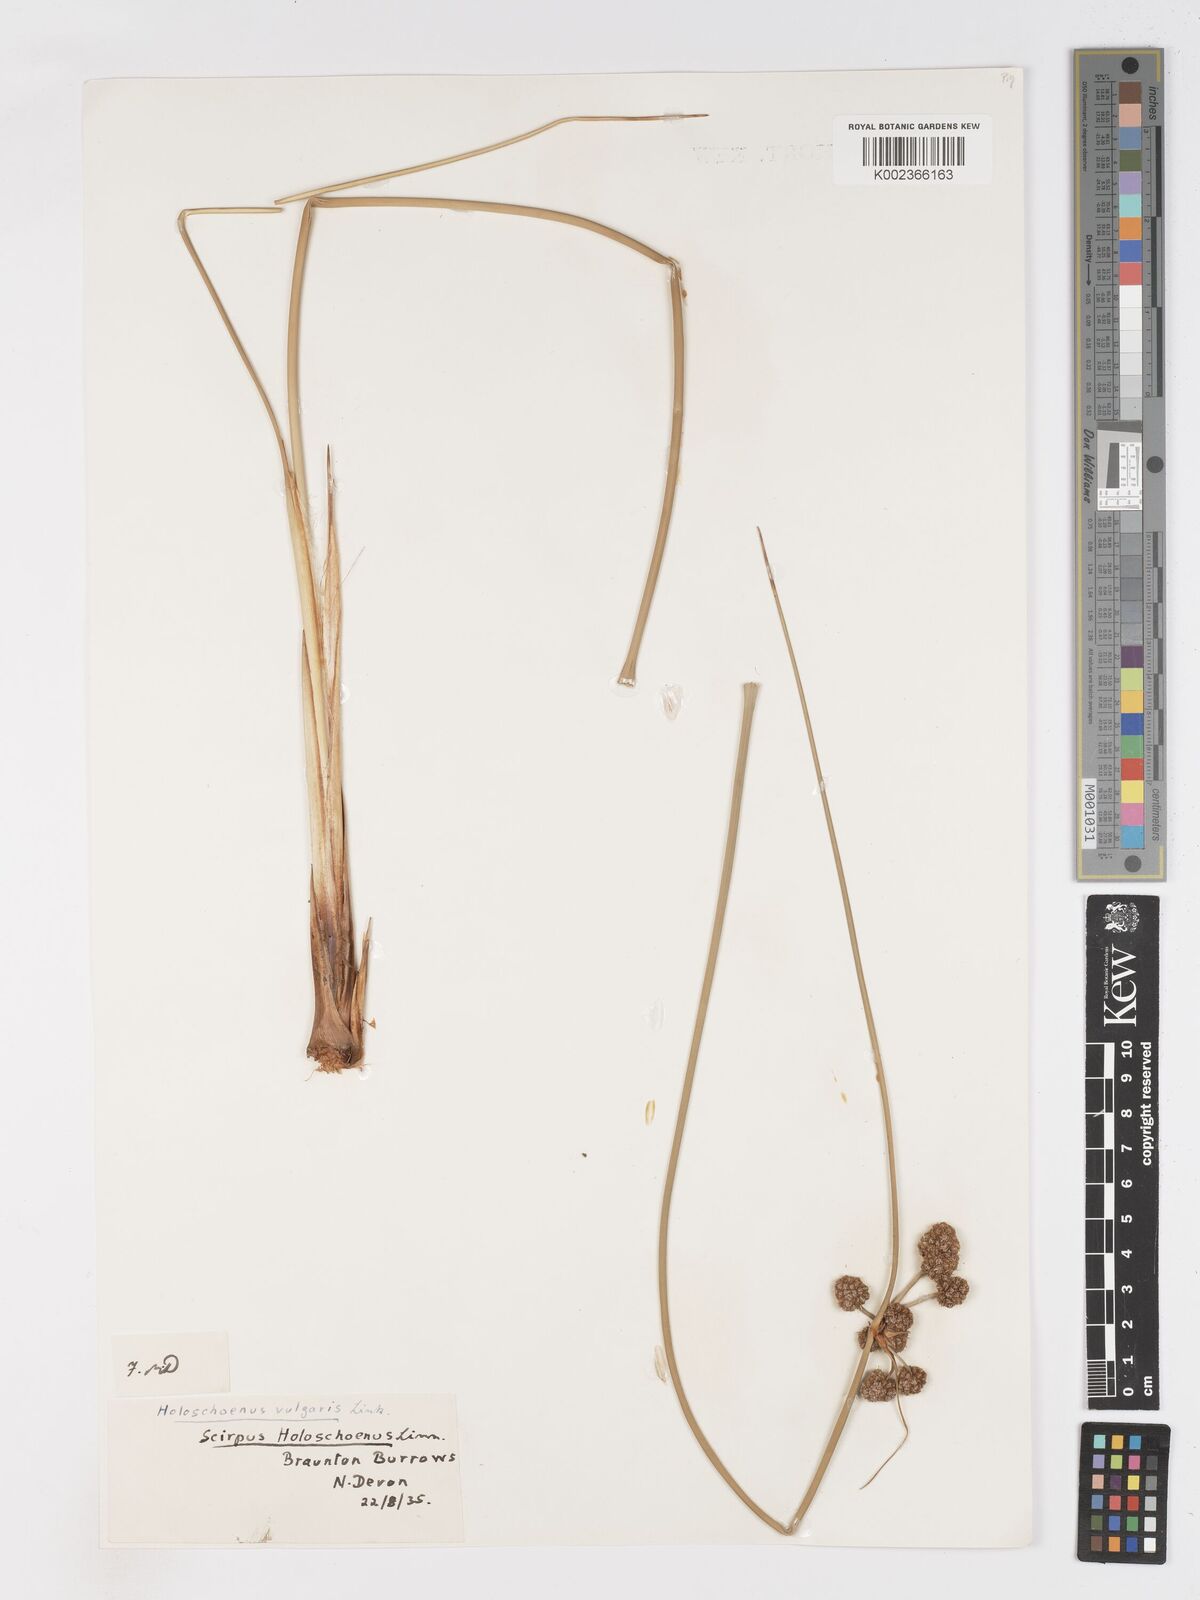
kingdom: Plantae
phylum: Tracheophyta
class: Liliopsida
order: Poales
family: Cyperaceae
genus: Scirpoides
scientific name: Scirpoides holoschoenus
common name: Round-headed club-rush
